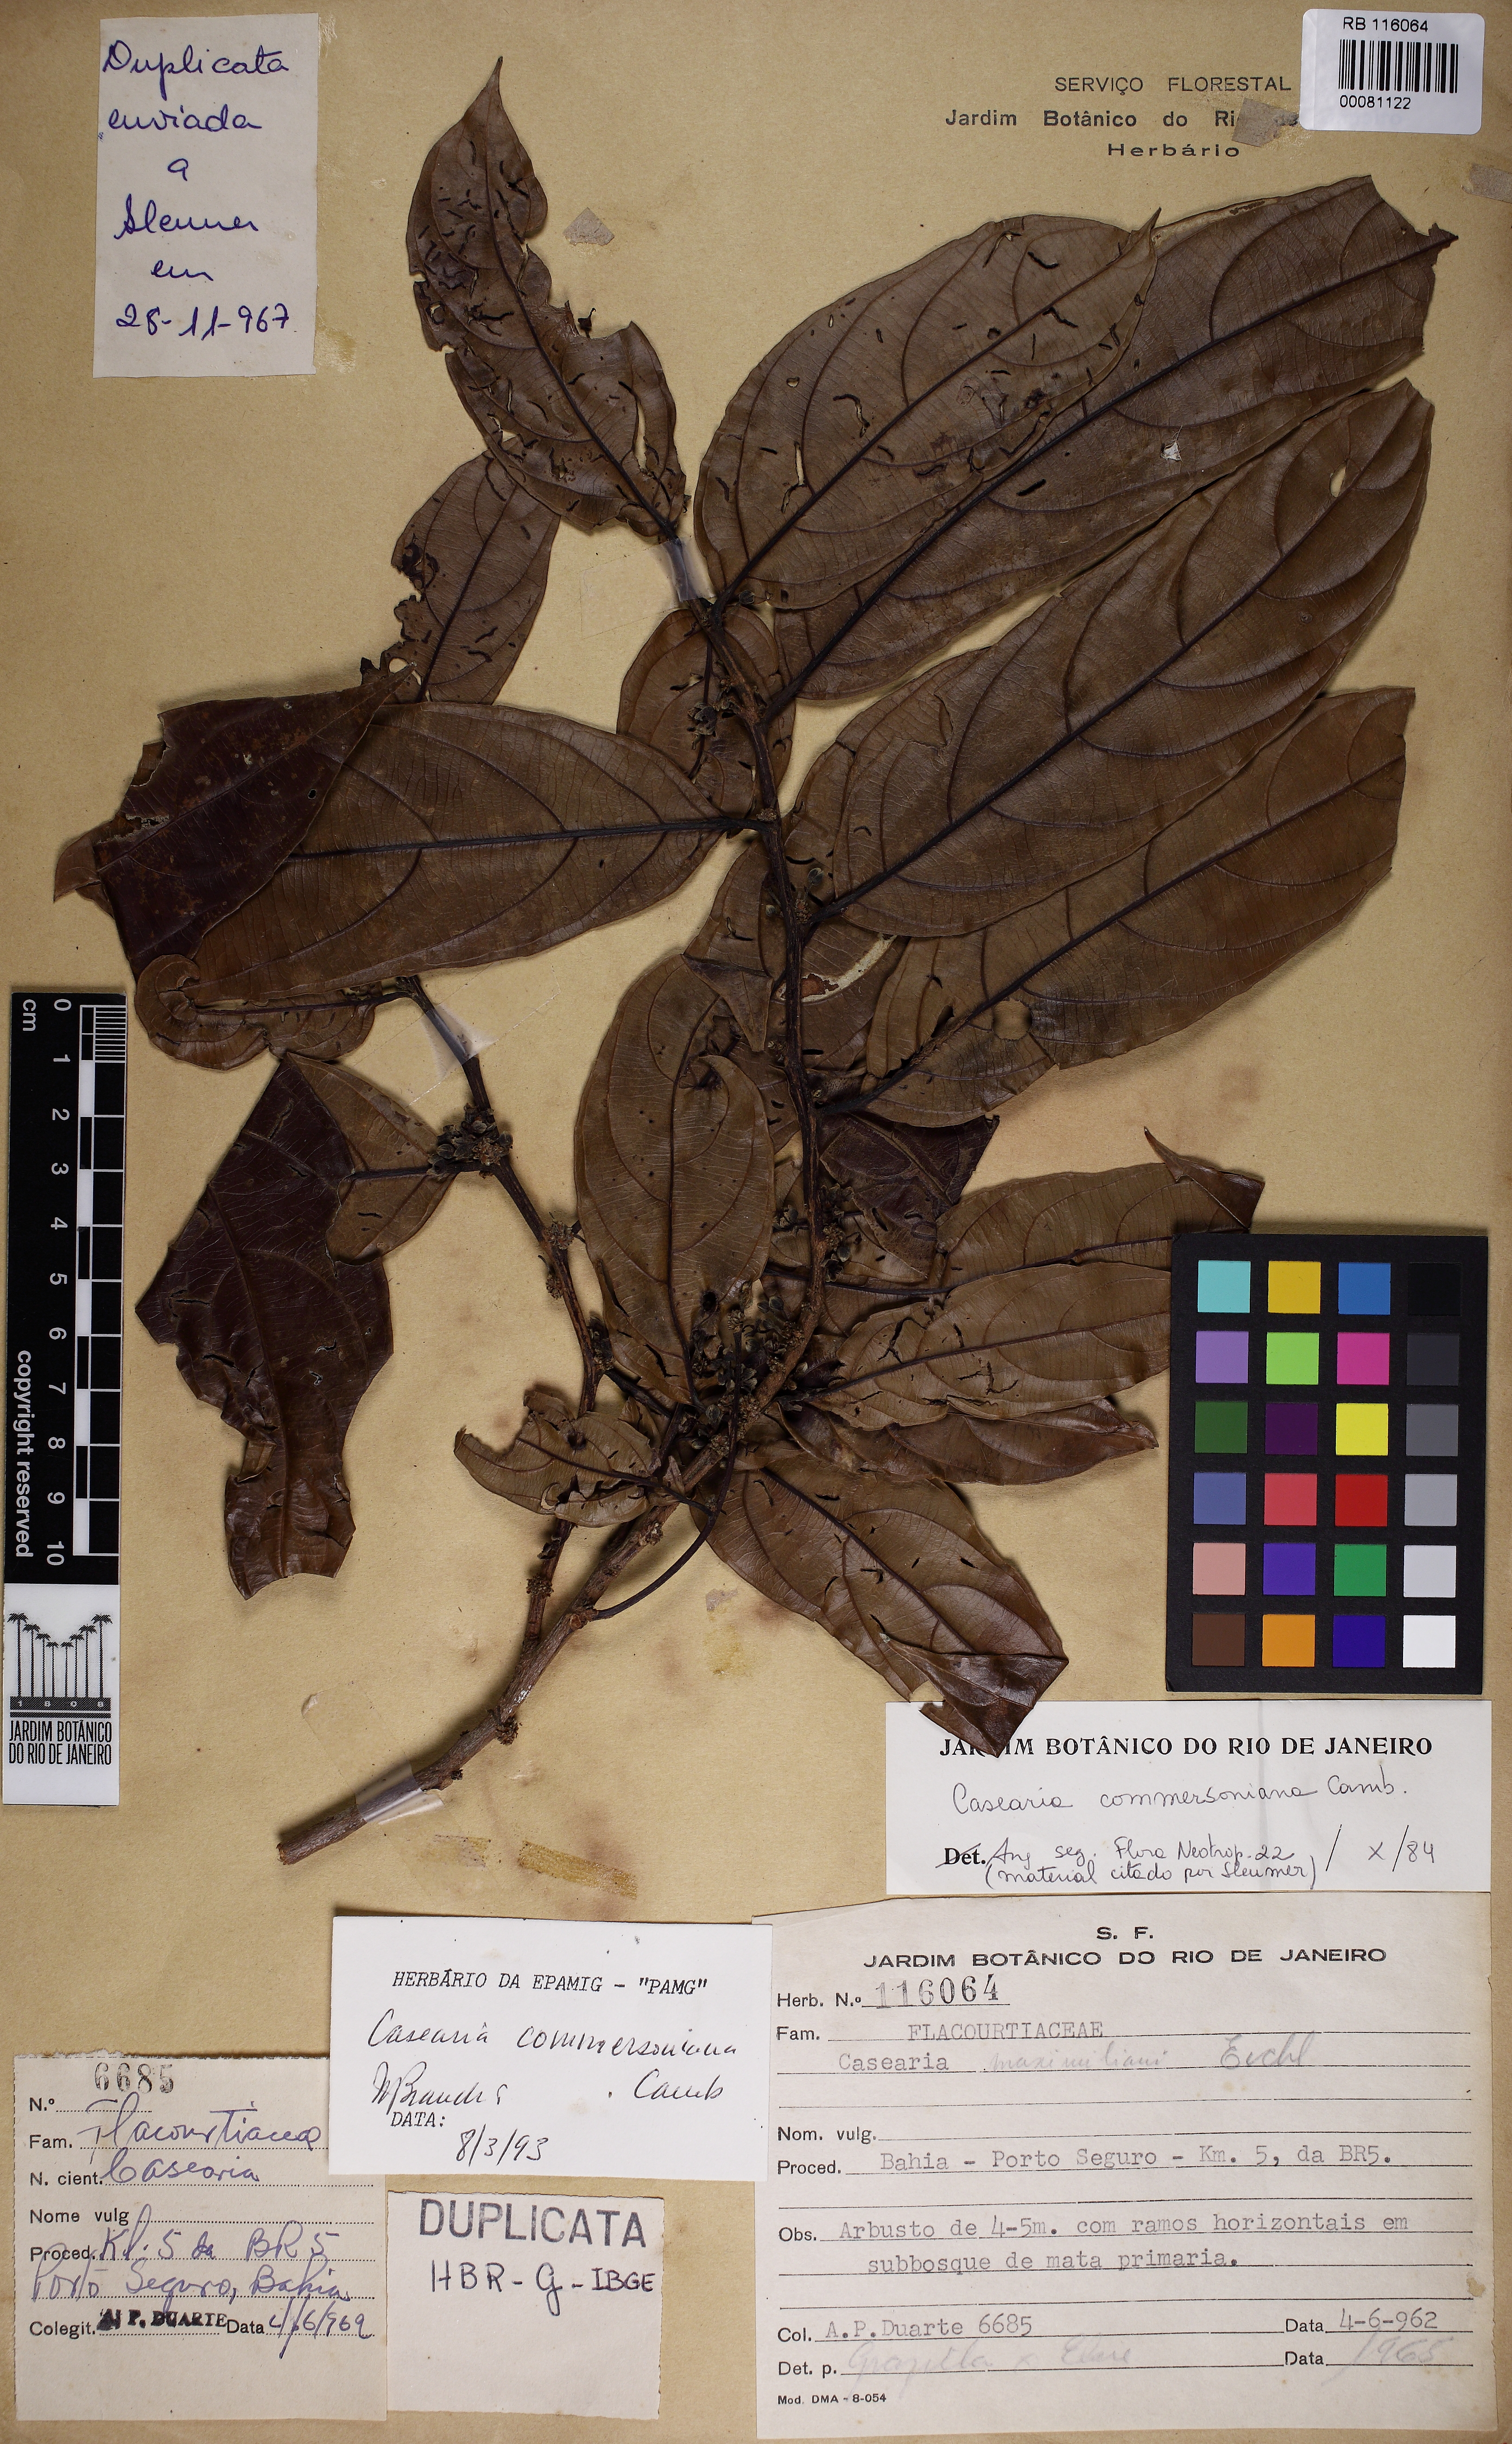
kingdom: Plantae
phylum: Tracheophyta
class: Magnoliopsida
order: Malpighiales
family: Salicaceae
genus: Piparea
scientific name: Piparea dentata
